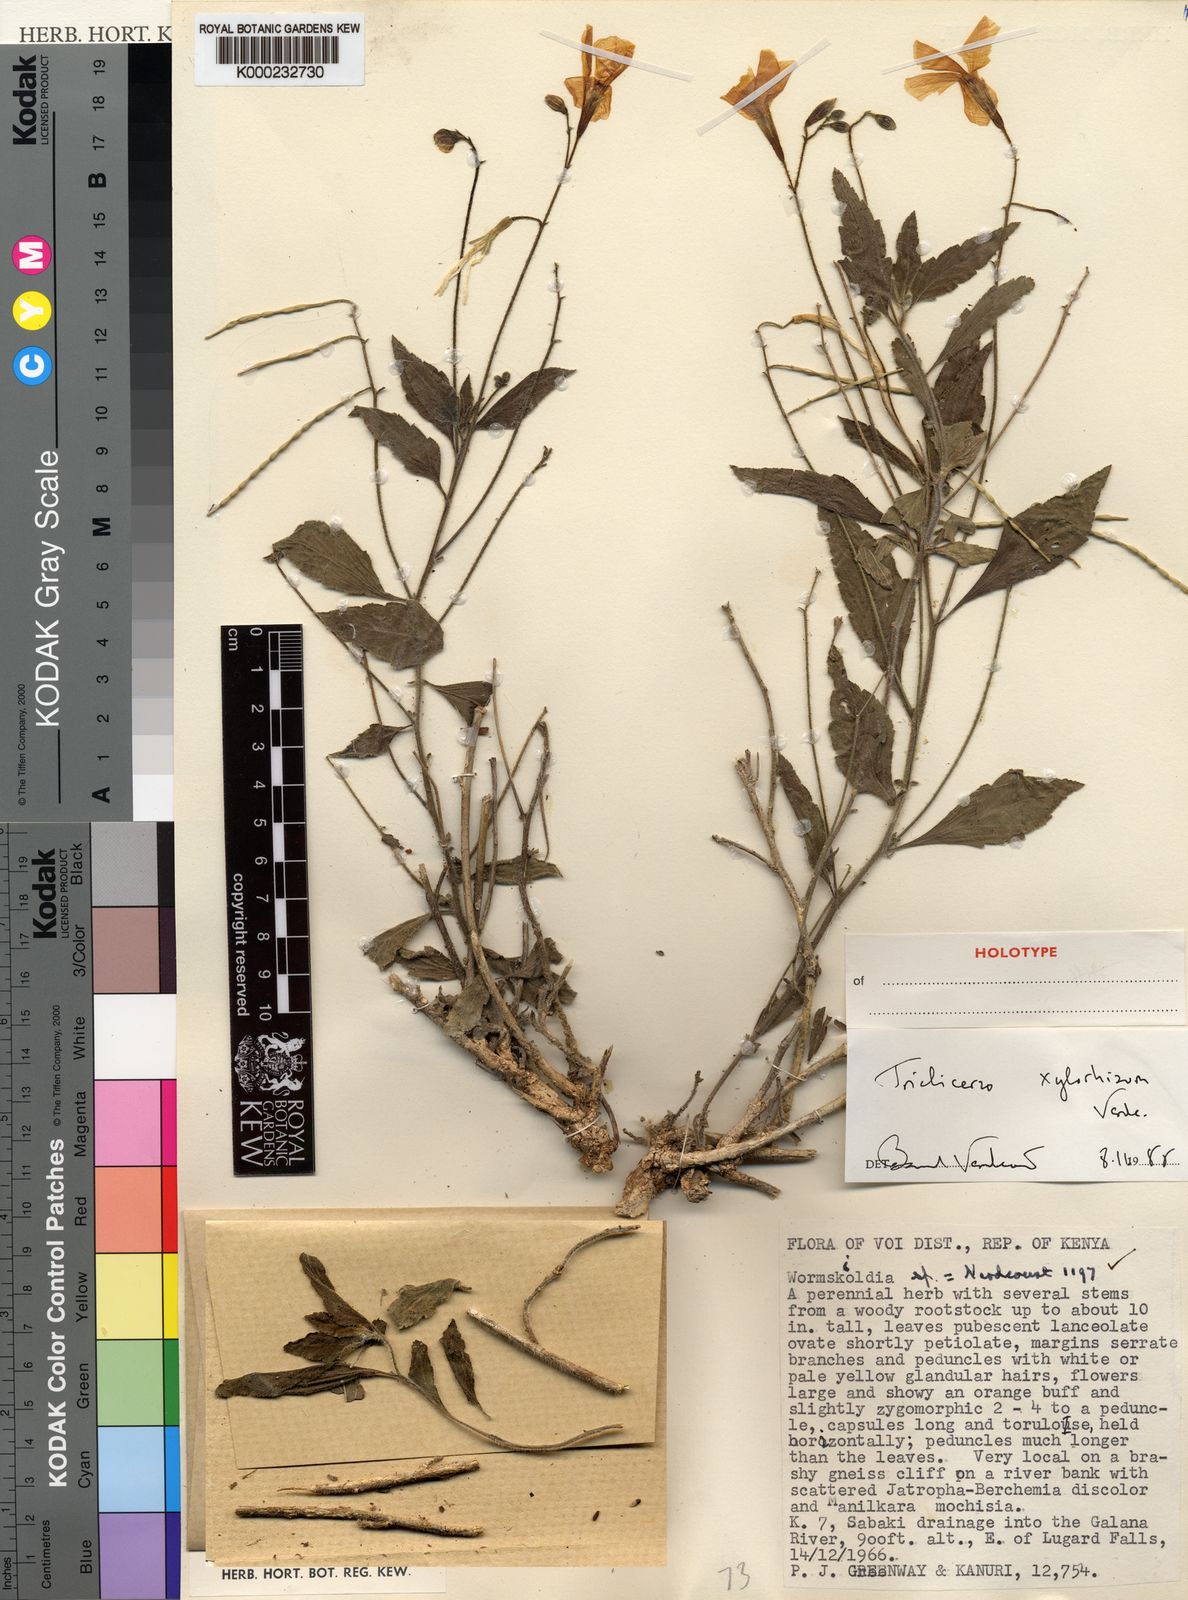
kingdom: Plantae
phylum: Tracheophyta
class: Magnoliopsida
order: Malpighiales
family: Turneraceae
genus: Tricliceras
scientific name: Tricliceras xylorhizum
